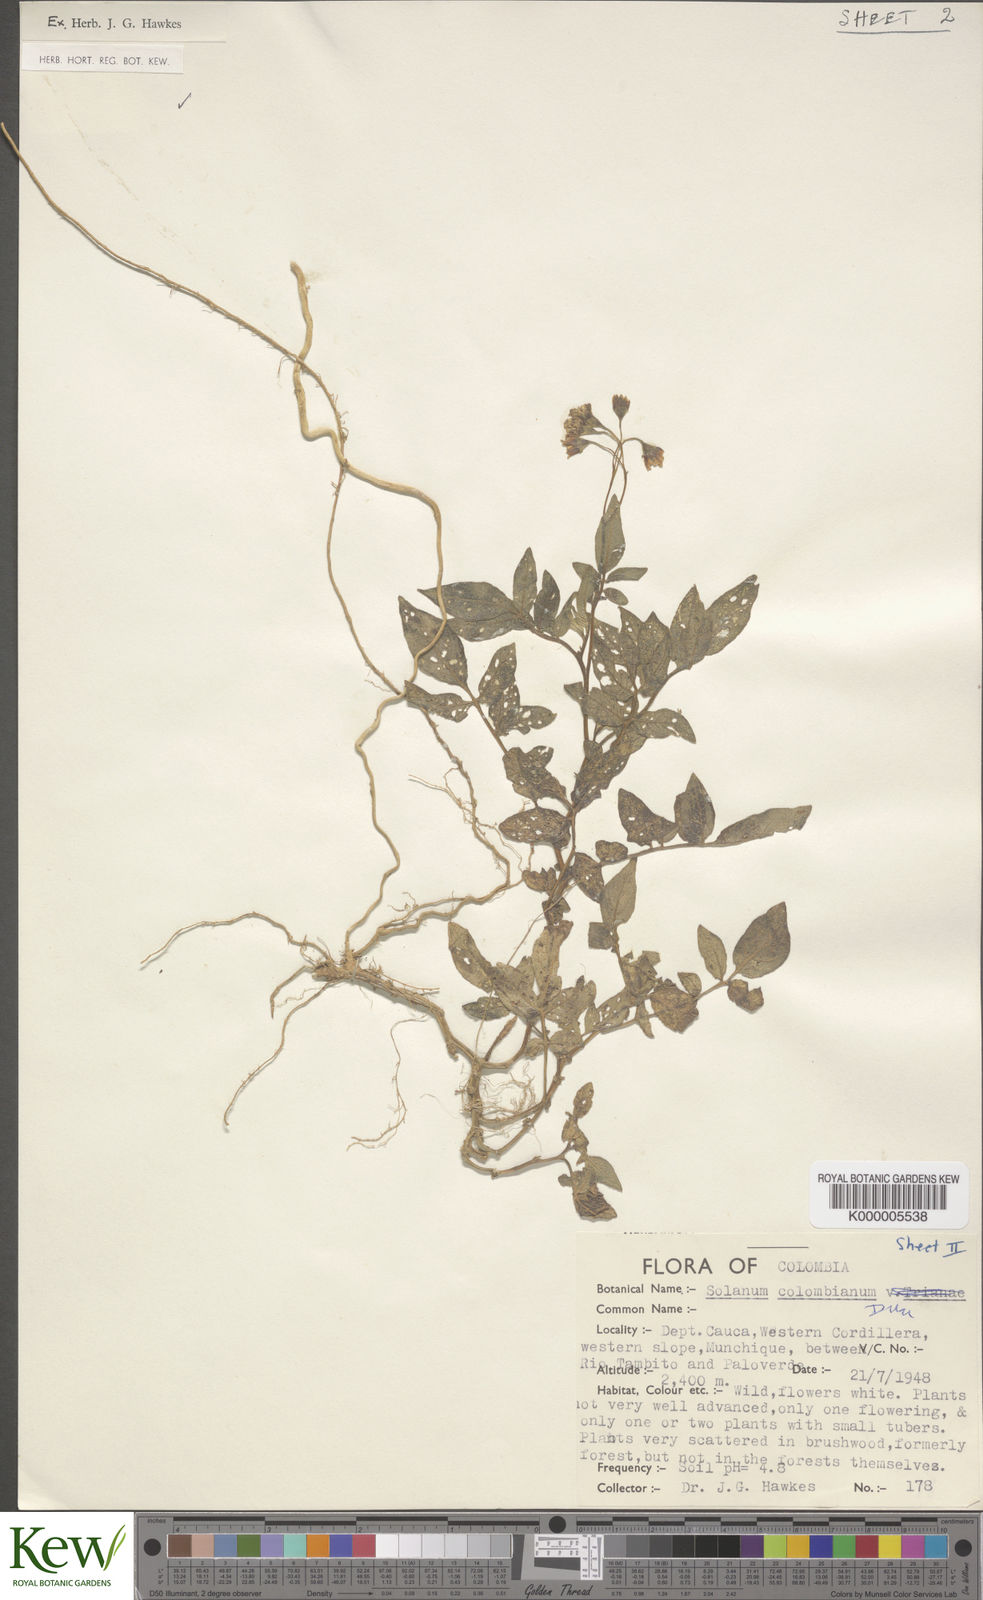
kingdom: Plantae
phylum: Tracheophyta
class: Magnoliopsida
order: Solanales
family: Solanaceae
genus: Solanum
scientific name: Solanum colombianum
